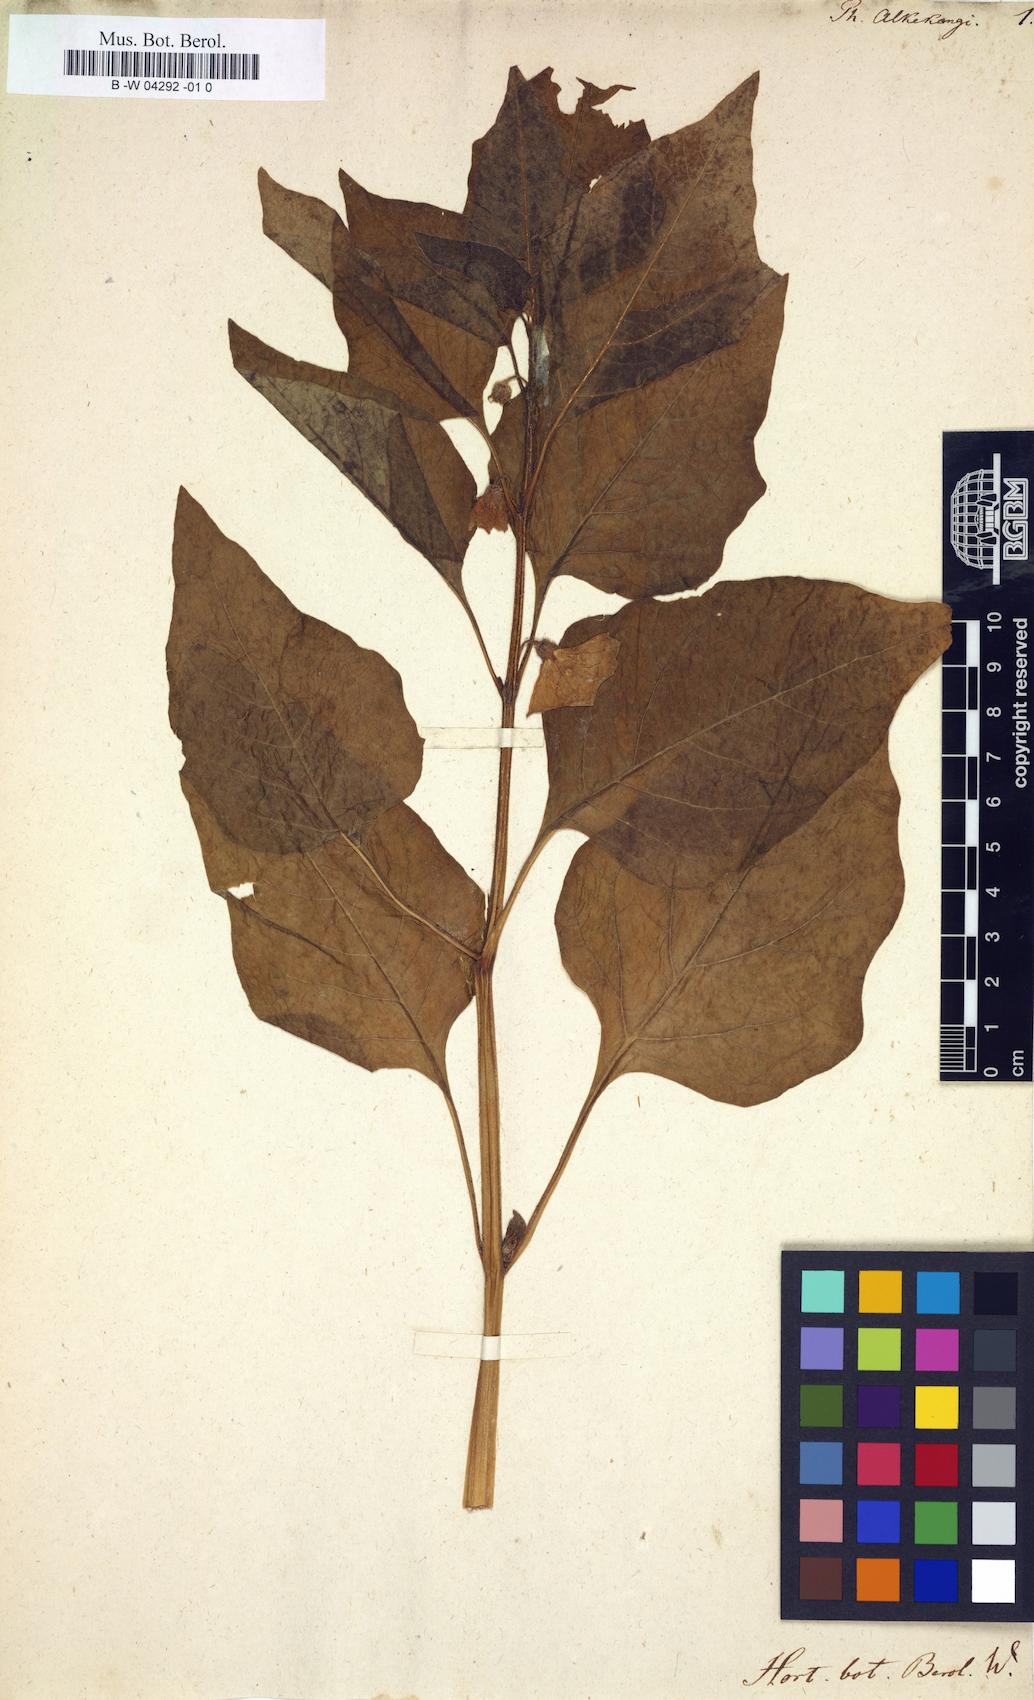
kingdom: Plantae
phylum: Tracheophyta
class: Magnoliopsida
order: Solanales
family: Solanaceae
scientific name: Solanaceae
